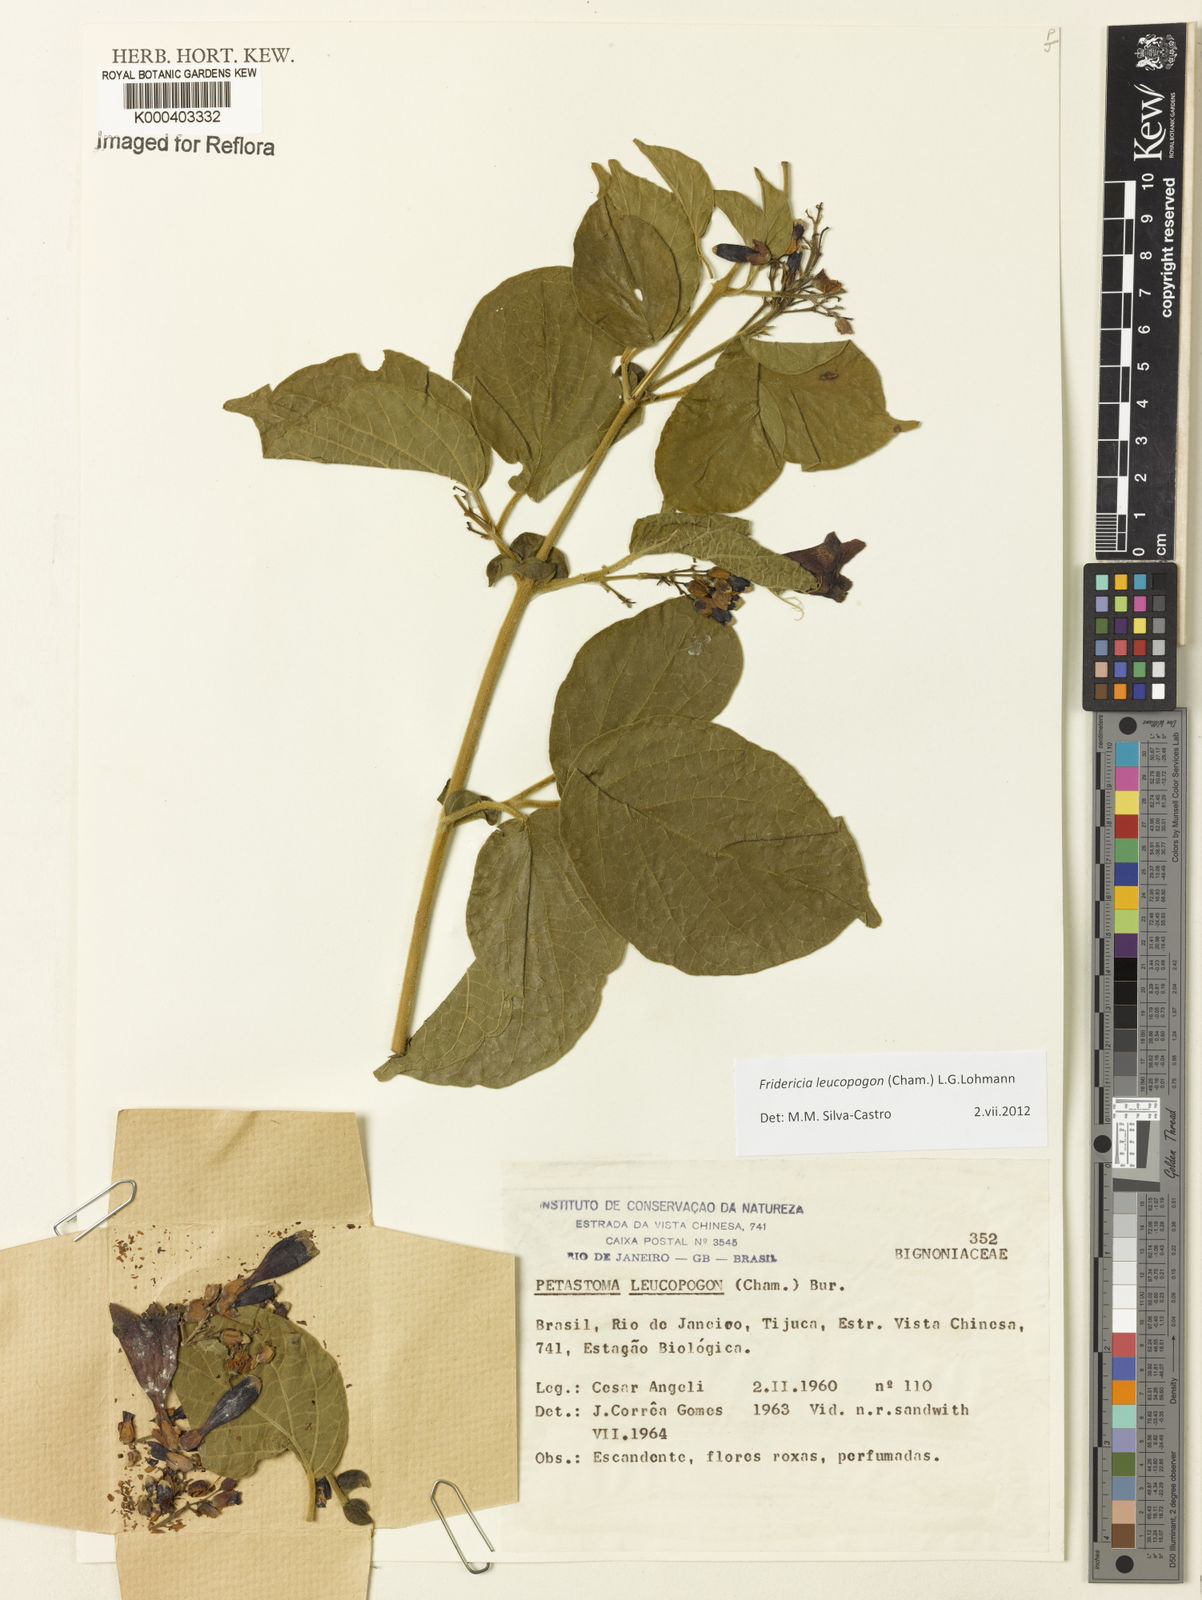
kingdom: Plantae
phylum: Tracheophyta
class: Magnoliopsida
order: Lamiales
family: Bignoniaceae
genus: Fridericia
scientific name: Fridericia leucopogon
